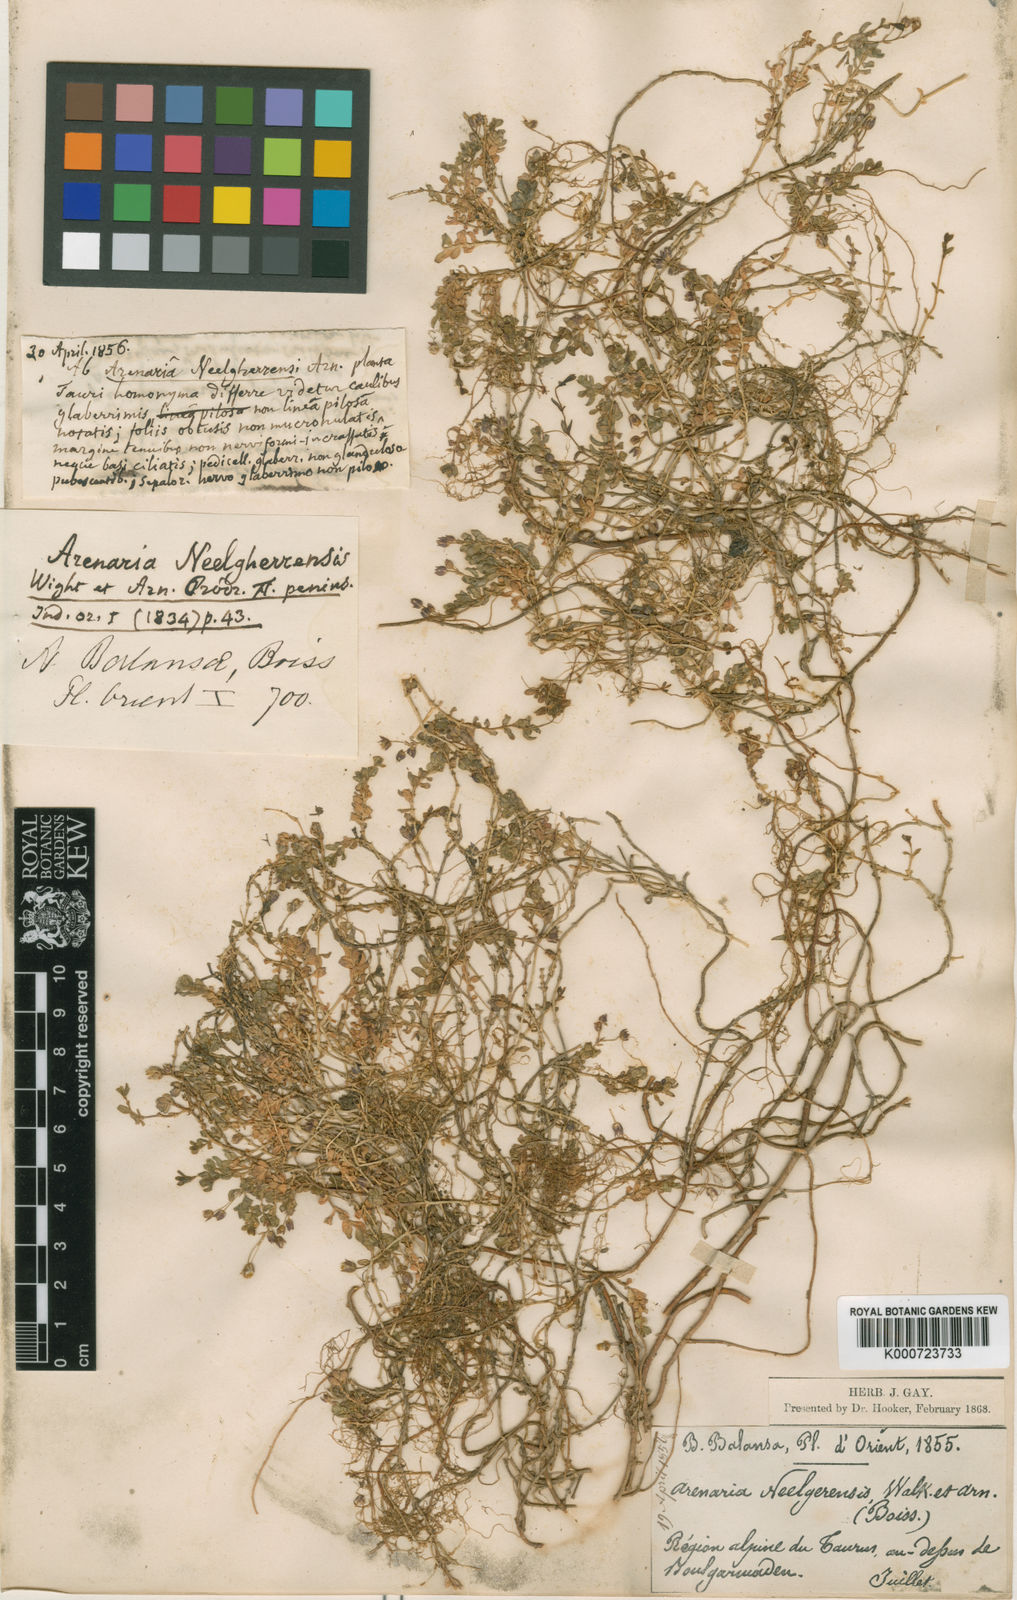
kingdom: Plantae
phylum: Tracheophyta
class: Magnoliopsida
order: Caryophyllales
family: Caryophyllaceae
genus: Arenaria
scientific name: Arenaria balansae
